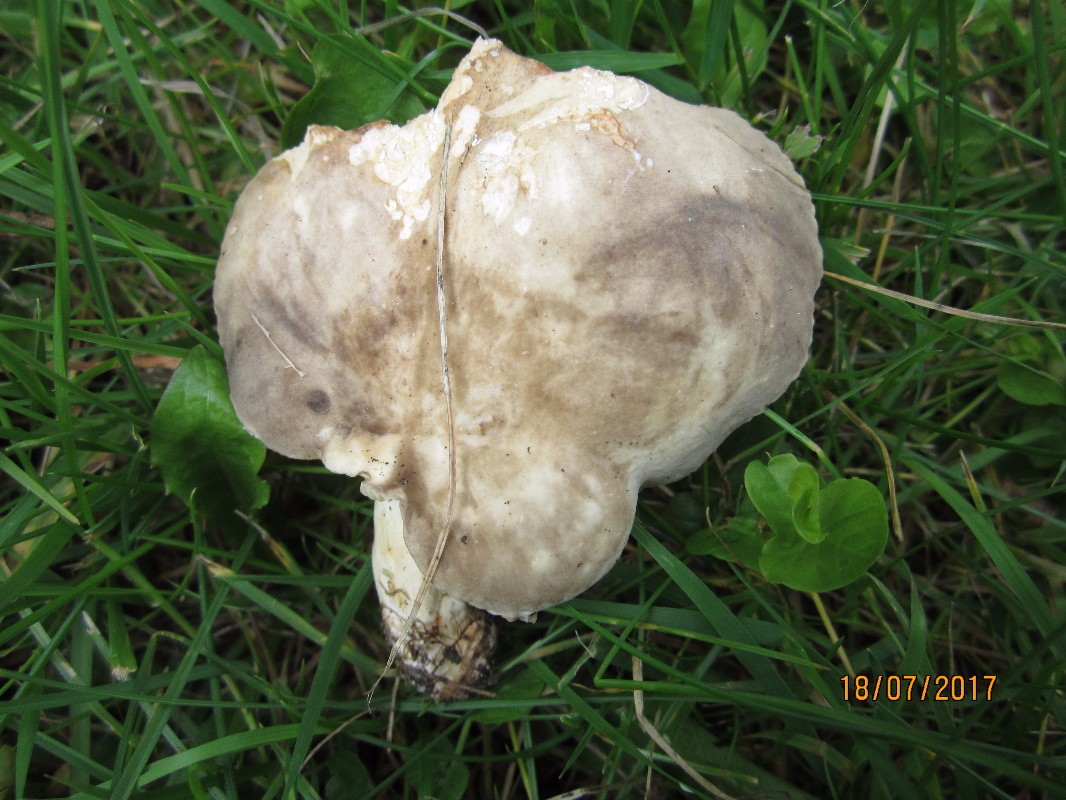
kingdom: Fungi
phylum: Basidiomycota
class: Agaricomycetes
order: Russulales
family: Russulaceae
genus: Lactarius
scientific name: Lactarius azonites
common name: røggrå mælkehat
